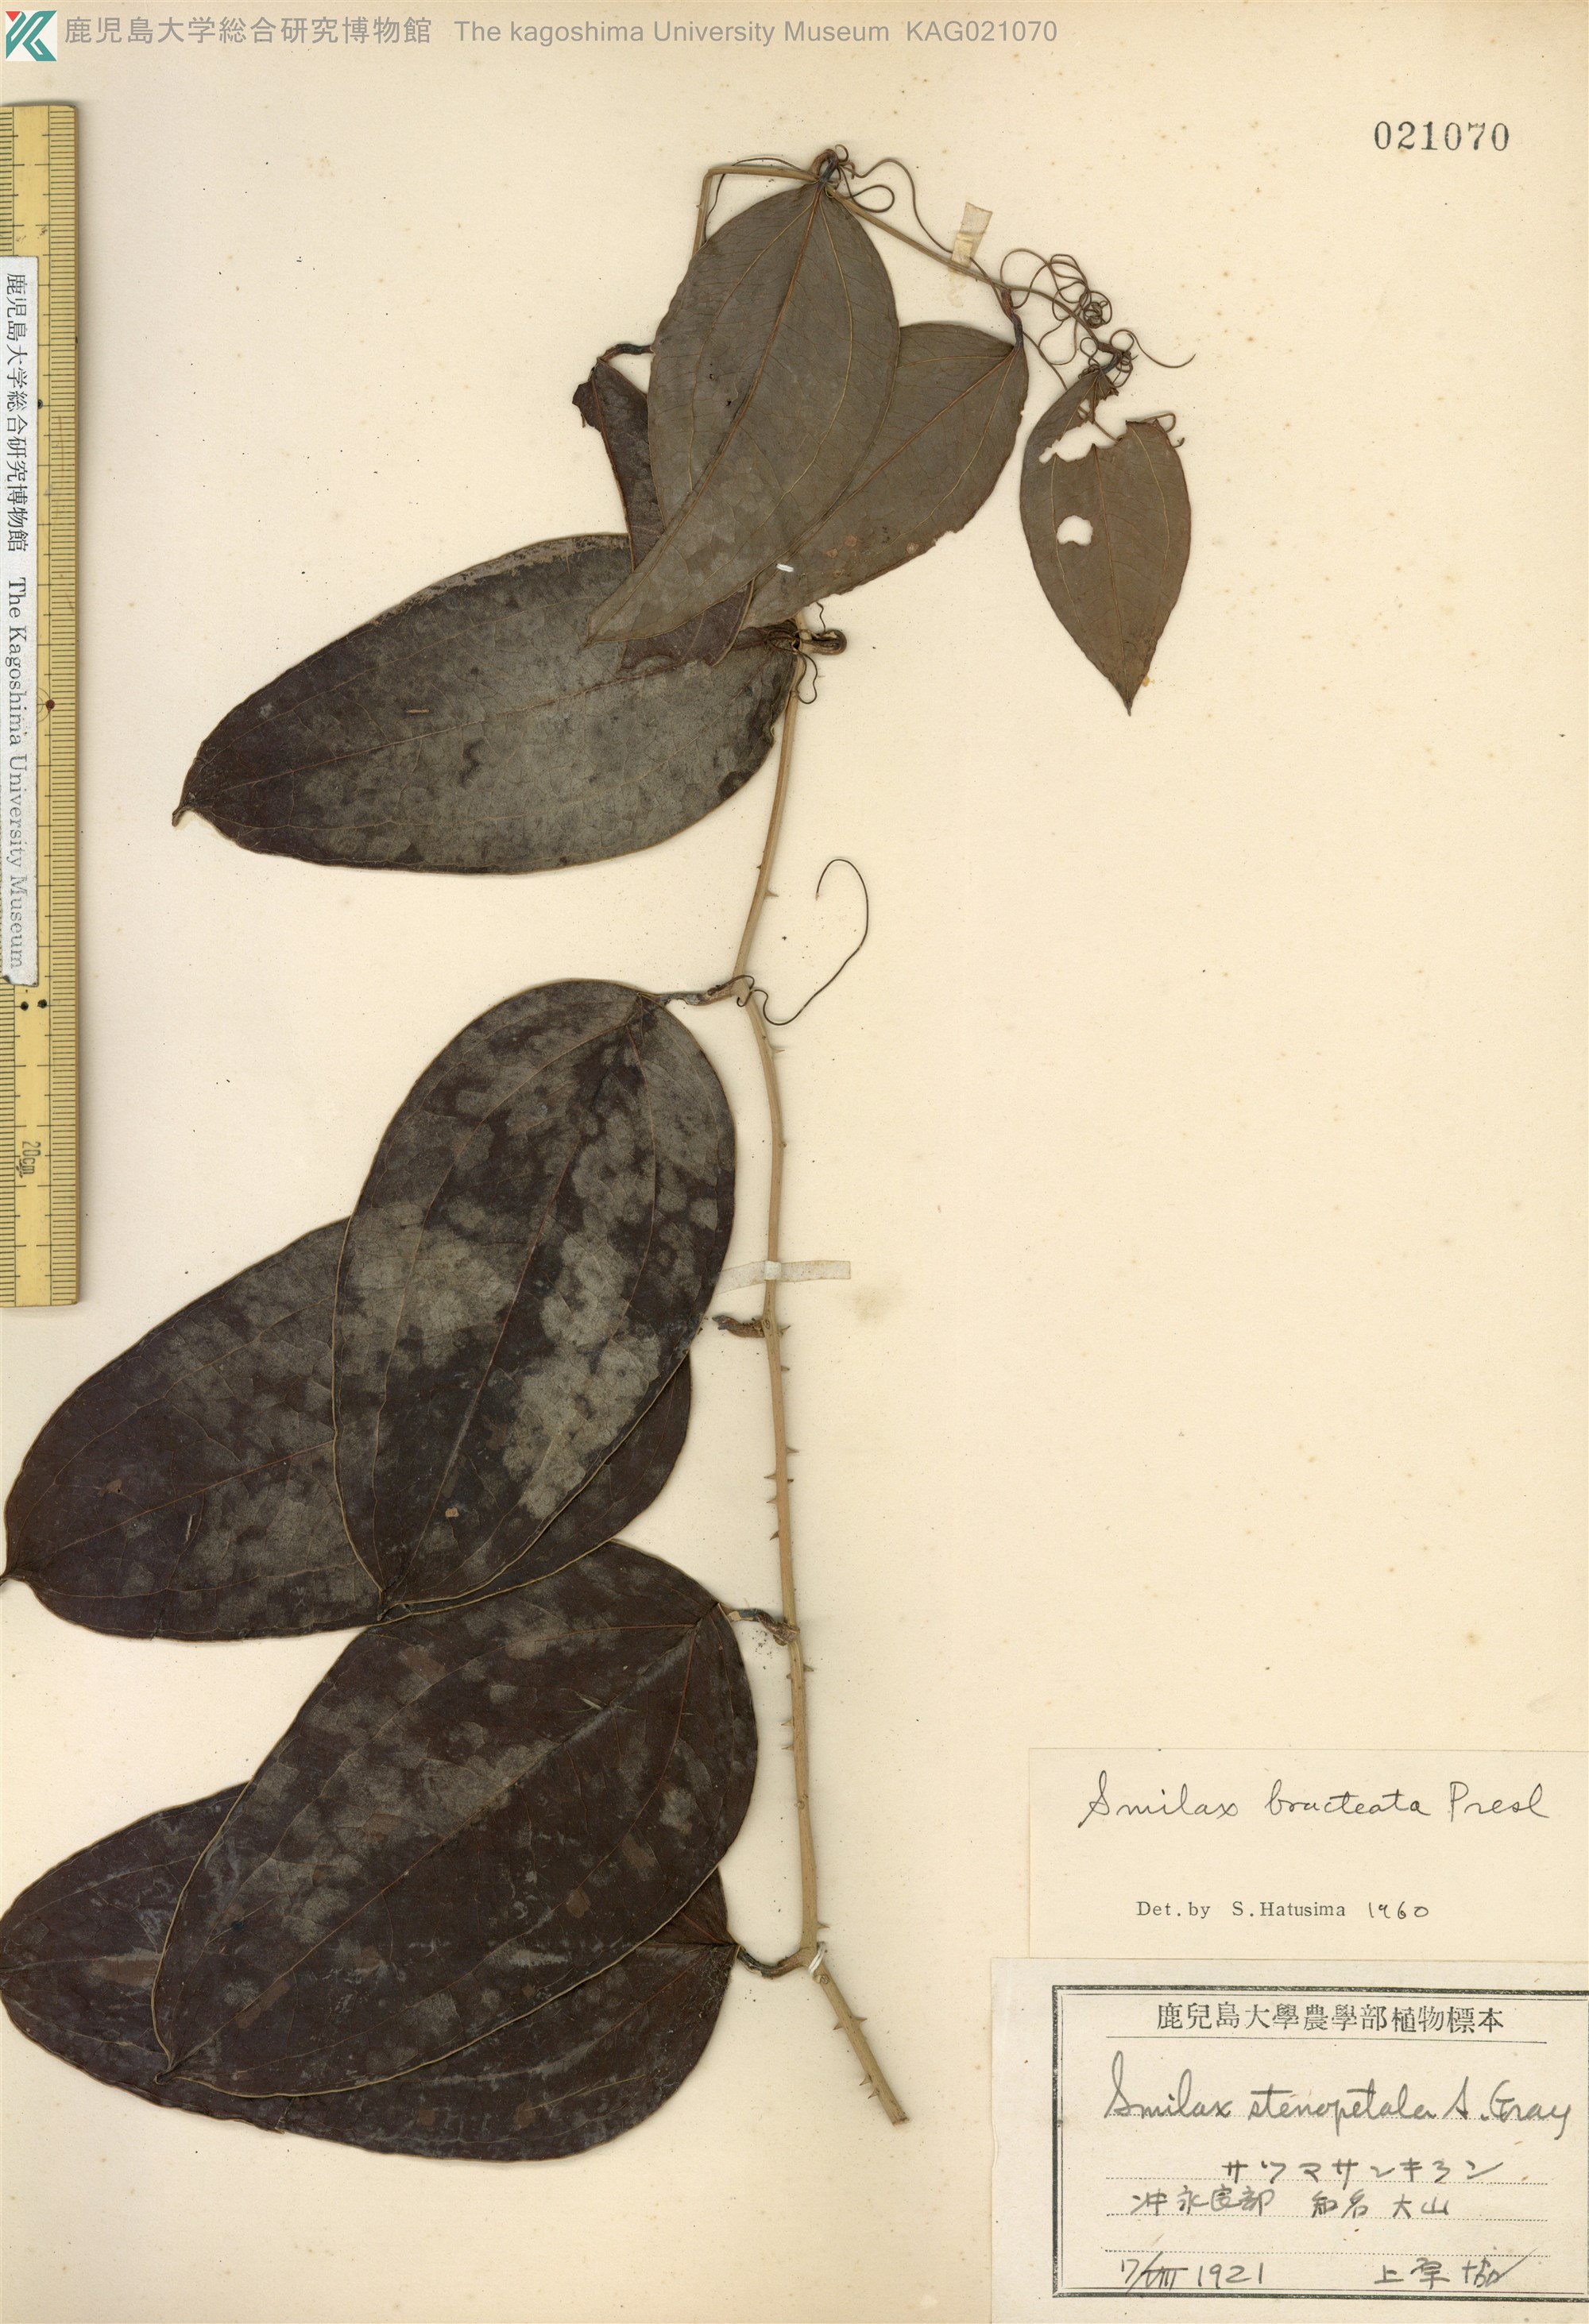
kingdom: Plantae
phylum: Tracheophyta
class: Liliopsida
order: Liliales
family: Smilacaceae
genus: Smilax
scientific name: Smilax bracteata
